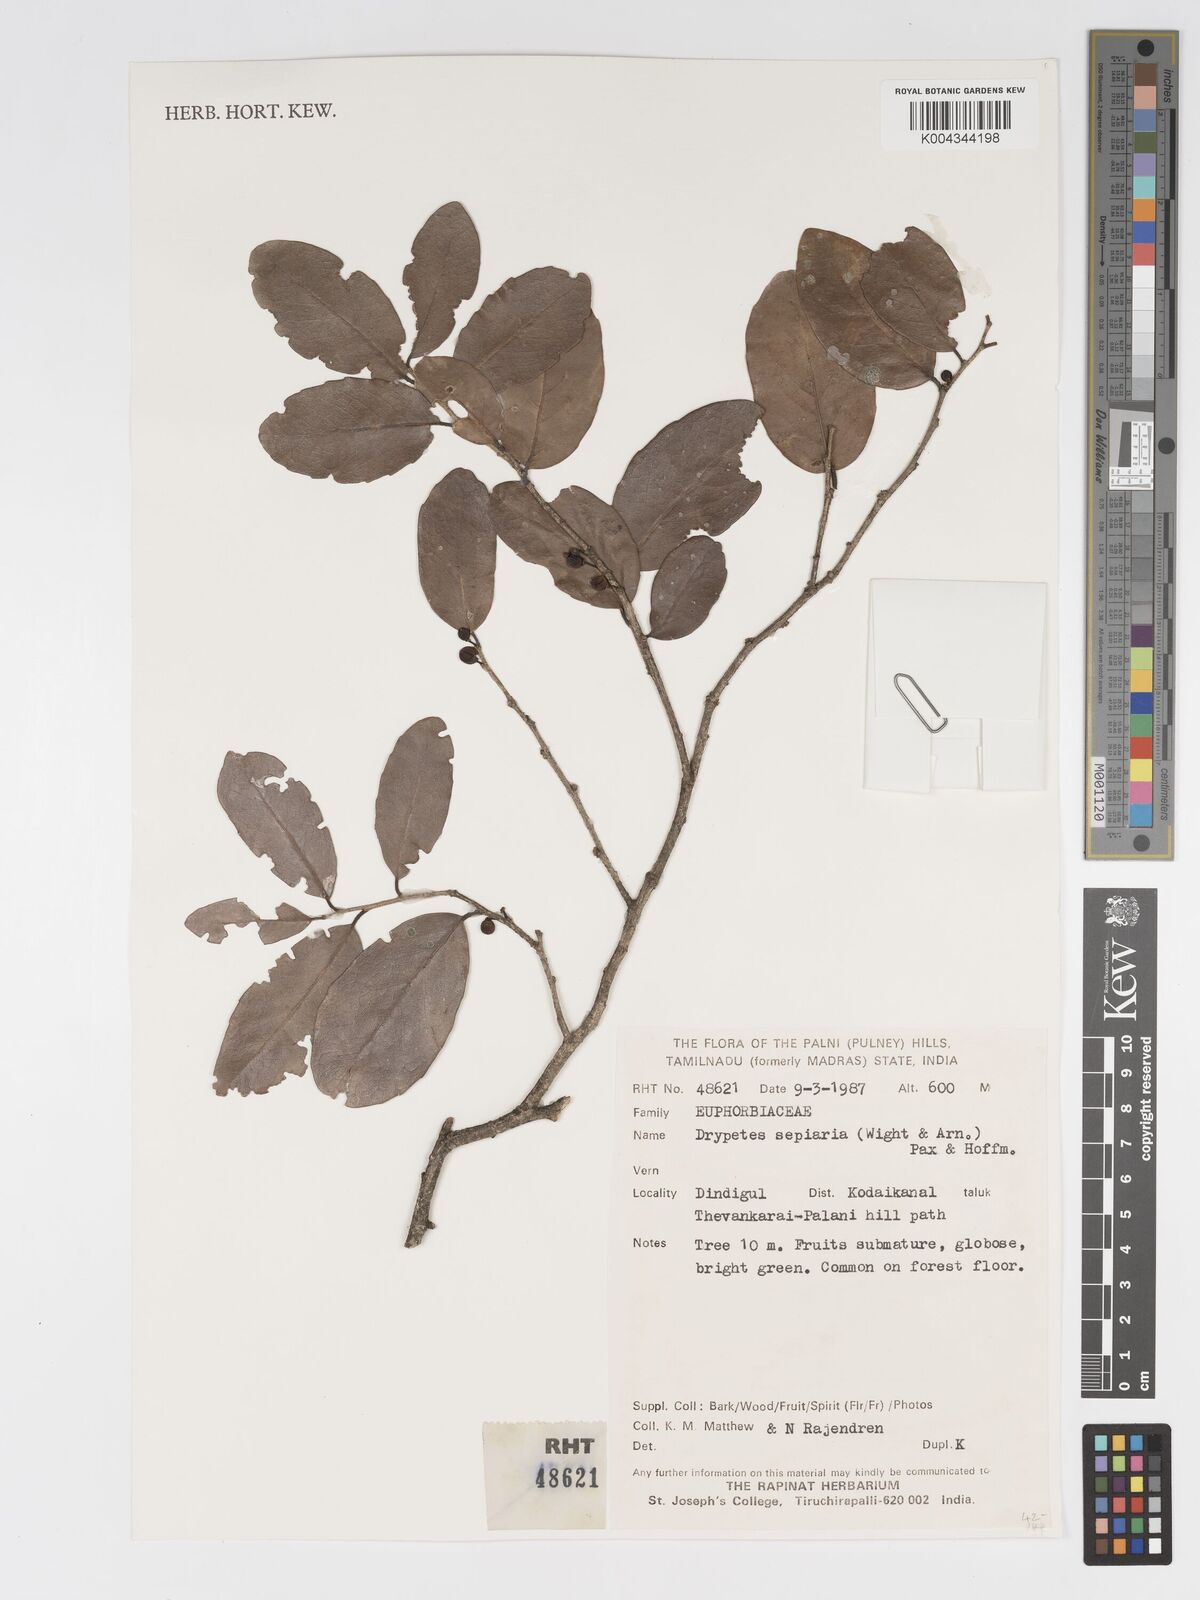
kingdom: Plantae
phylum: Tracheophyta
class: Magnoliopsida
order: Malpighiales
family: Putranjivaceae
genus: Drypetes
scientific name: Drypetes sepiaria
